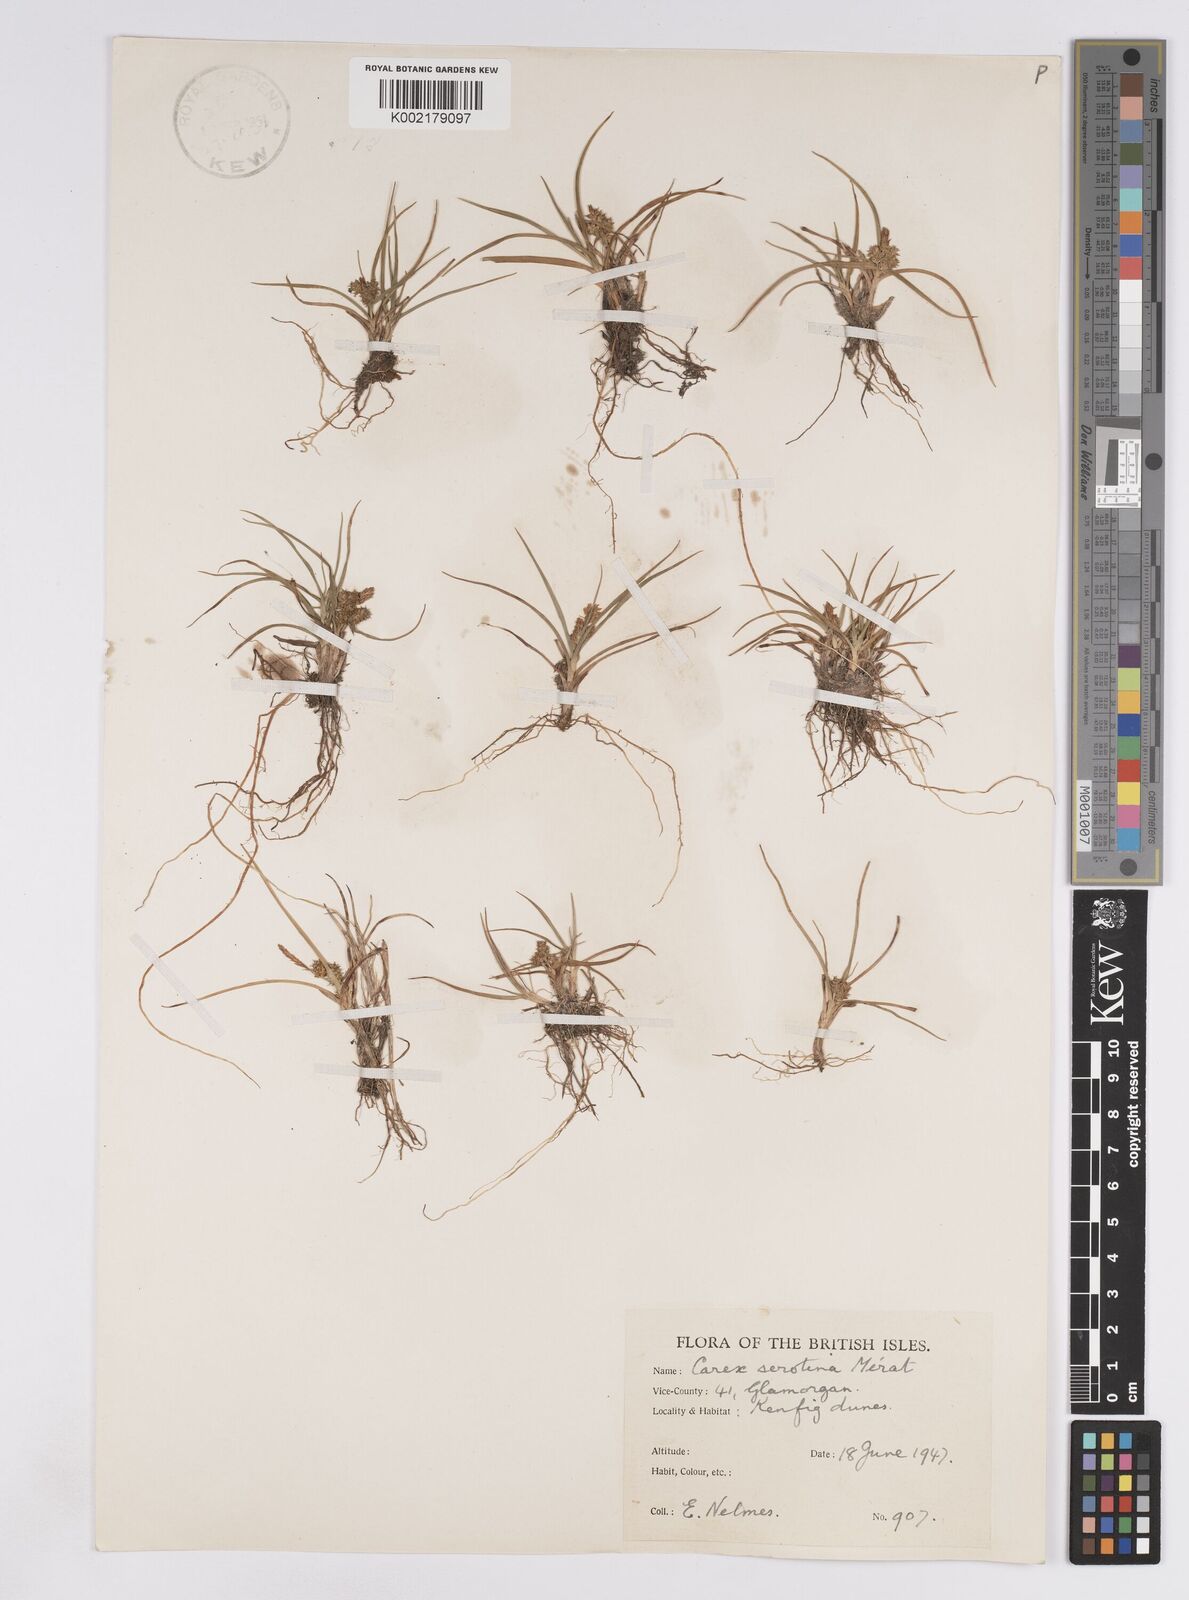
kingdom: Plantae
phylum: Tracheophyta
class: Liliopsida
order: Poales
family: Cyperaceae
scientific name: Cyperaceae
